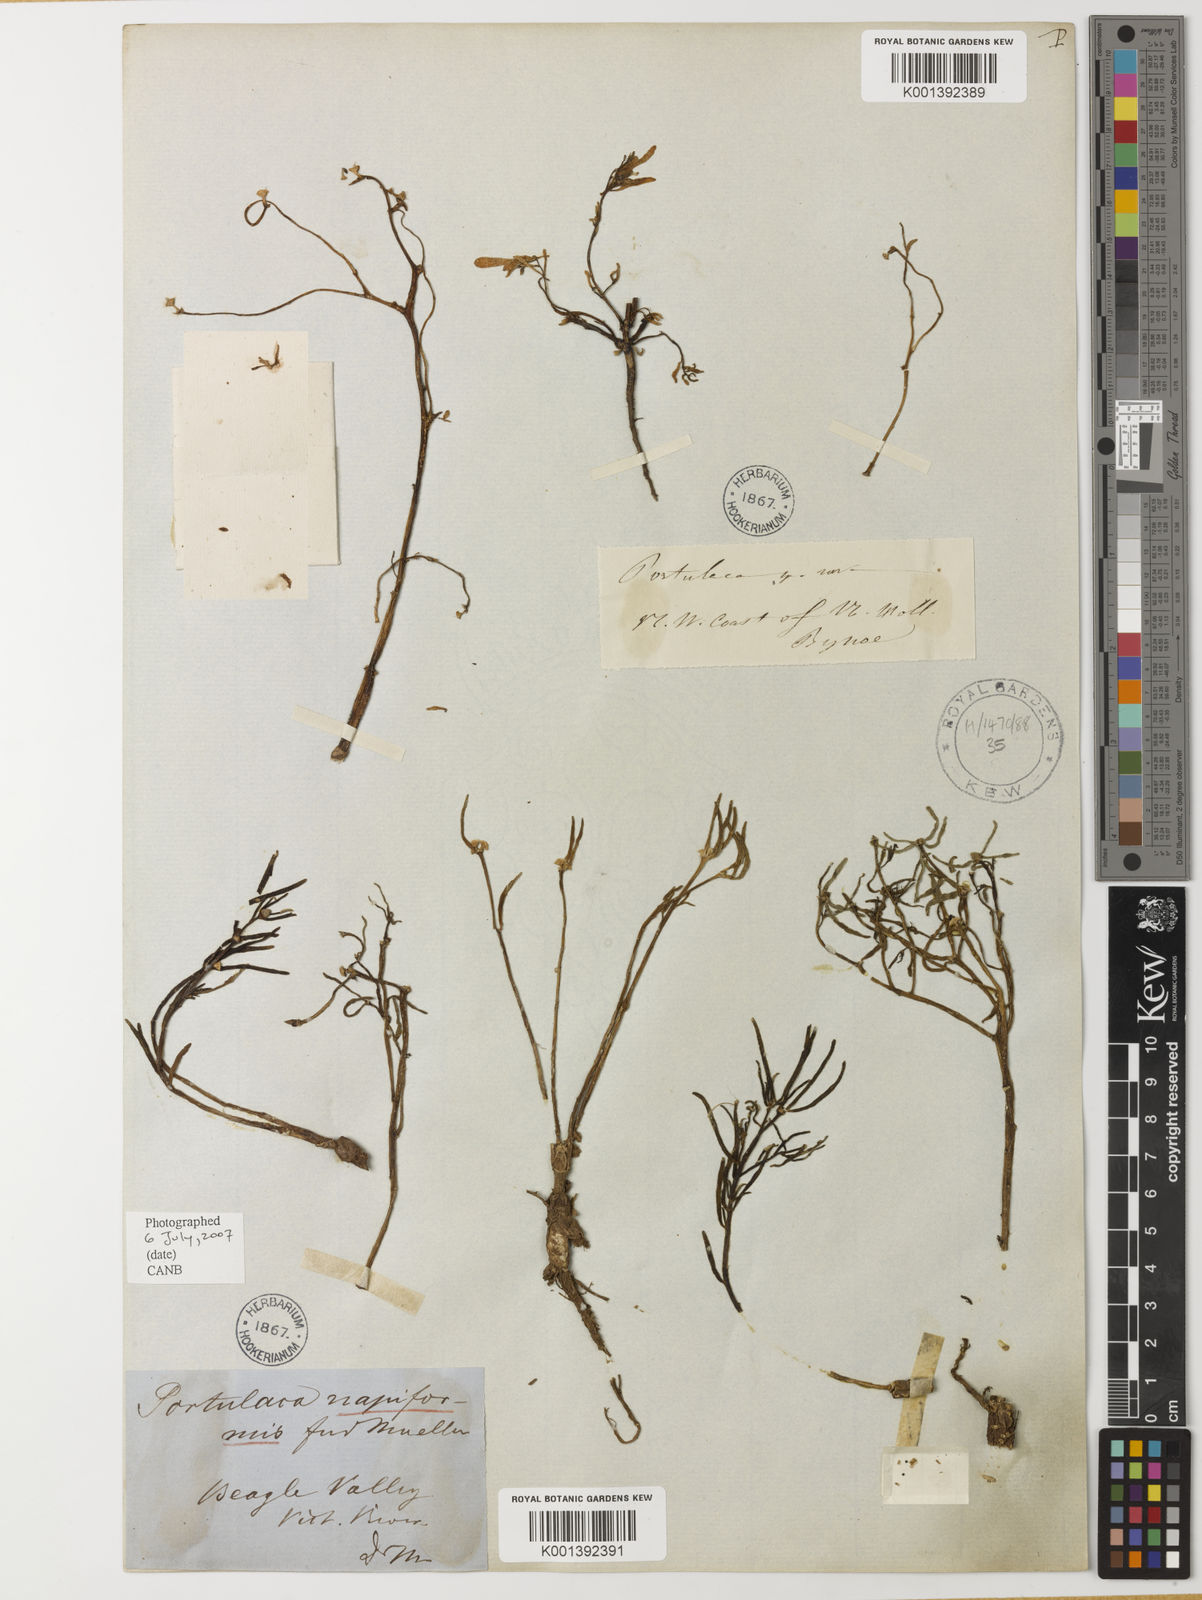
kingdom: Plantae
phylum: Tracheophyta
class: Magnoliopsida
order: Caryophyllales
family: Portulacaceae
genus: Portulaca
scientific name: Portulaca
